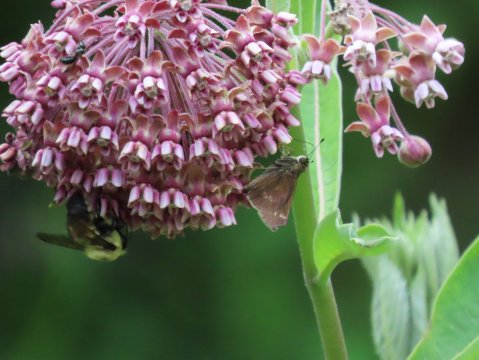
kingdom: Animalia
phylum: Arthropoda
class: Insecta
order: Lepidoptera
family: Hesperiidae
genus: Vernia
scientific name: Vernia verna
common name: Little Glassywing
